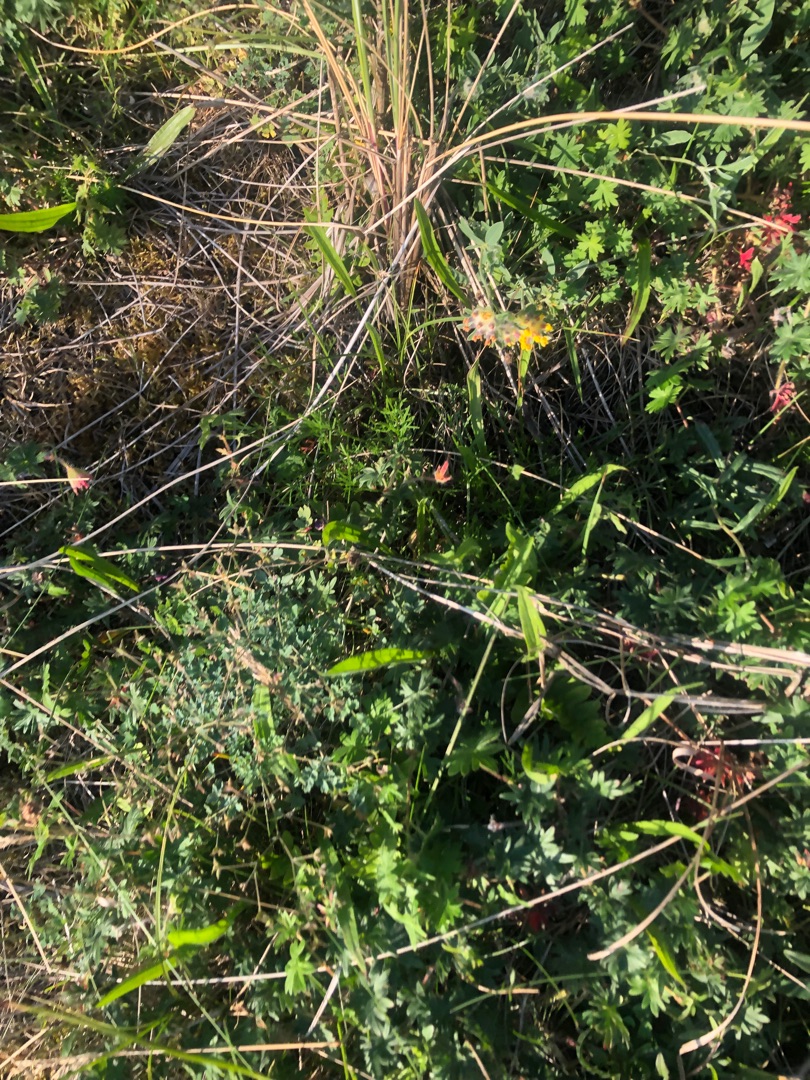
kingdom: Plantae
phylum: Tracheophyta
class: Magnoliopsida
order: Fabales
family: Fabaceae
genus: Anthyllis
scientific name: Anthyllis vulneraria
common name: Rundbælg
